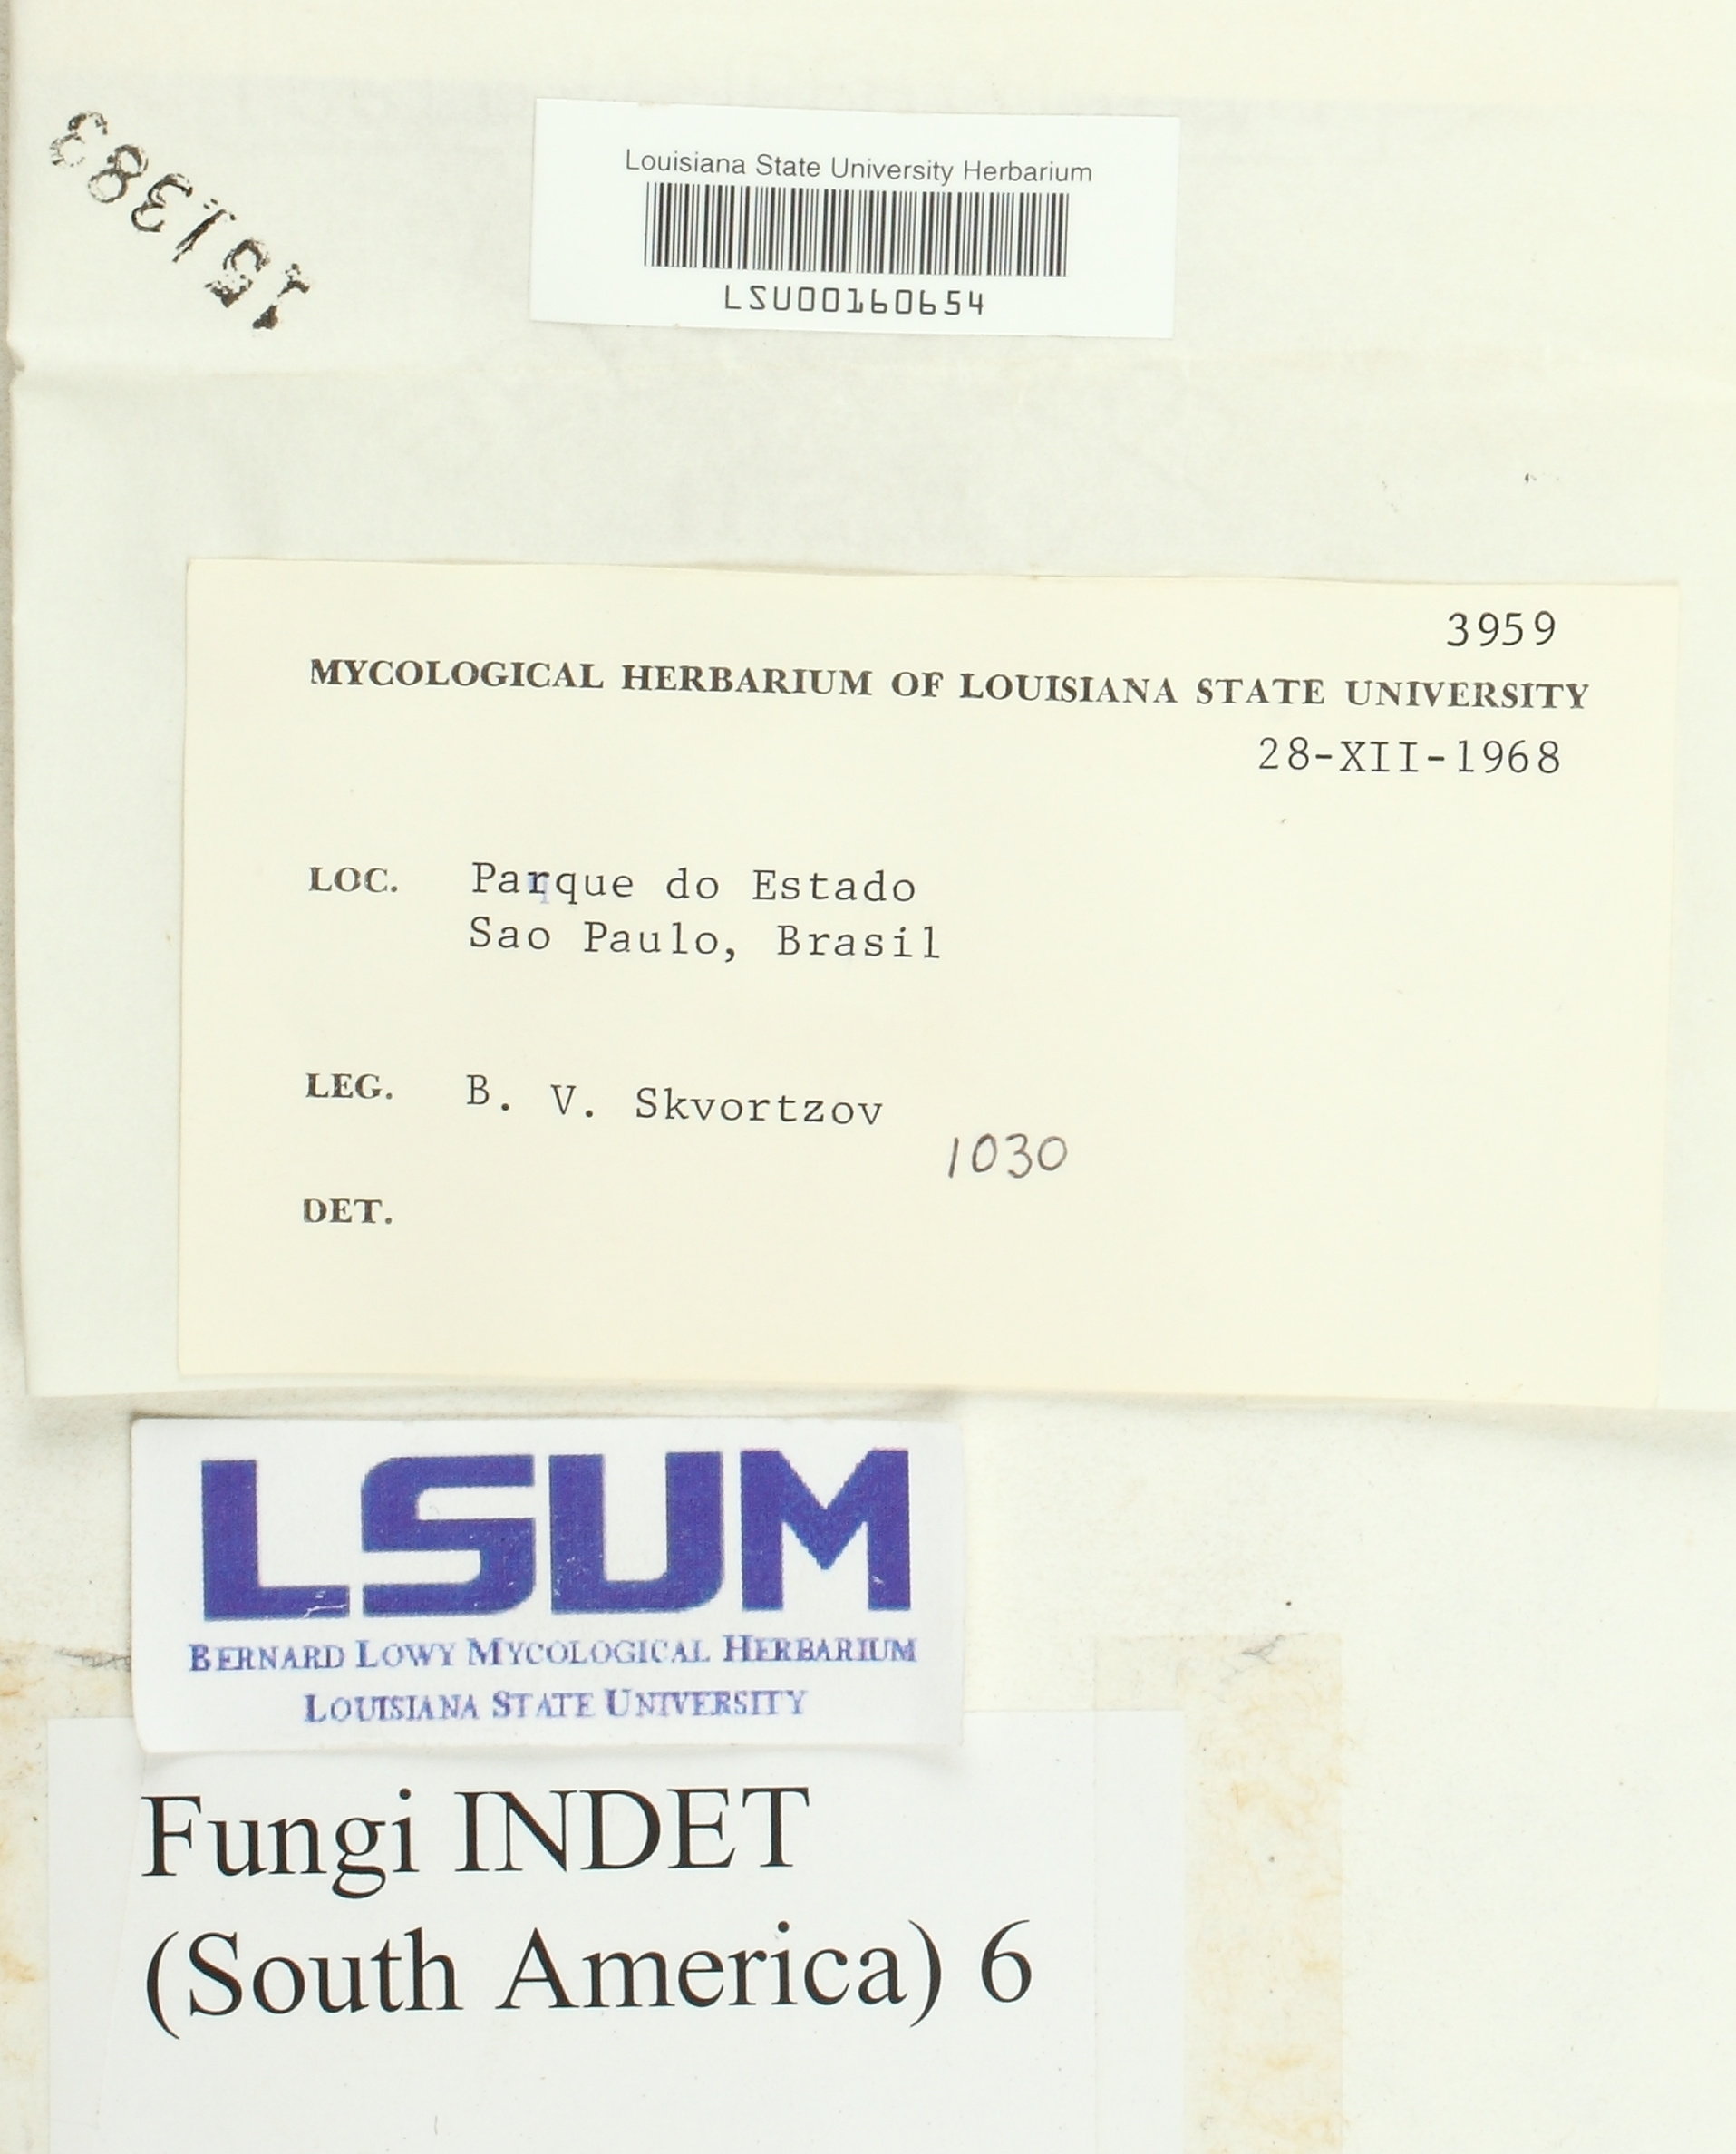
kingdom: Fungi
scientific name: Fungi
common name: Fungi
